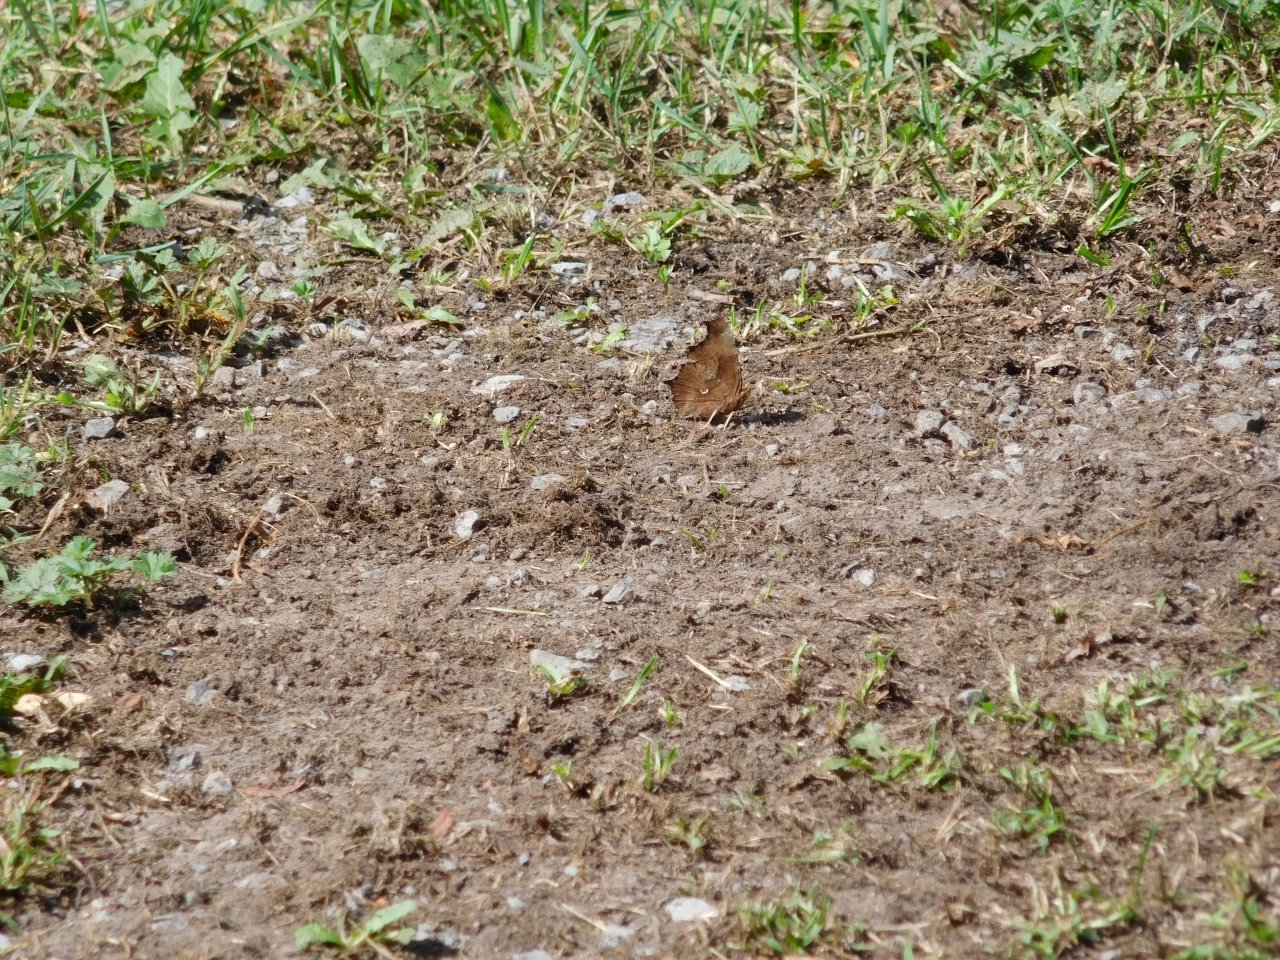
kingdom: Animalia
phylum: Arthropoda
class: Insecta
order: Lepidoptera
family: Nymphalidae
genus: Polygonia
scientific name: Polygonia comma
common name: Eastern Comma
